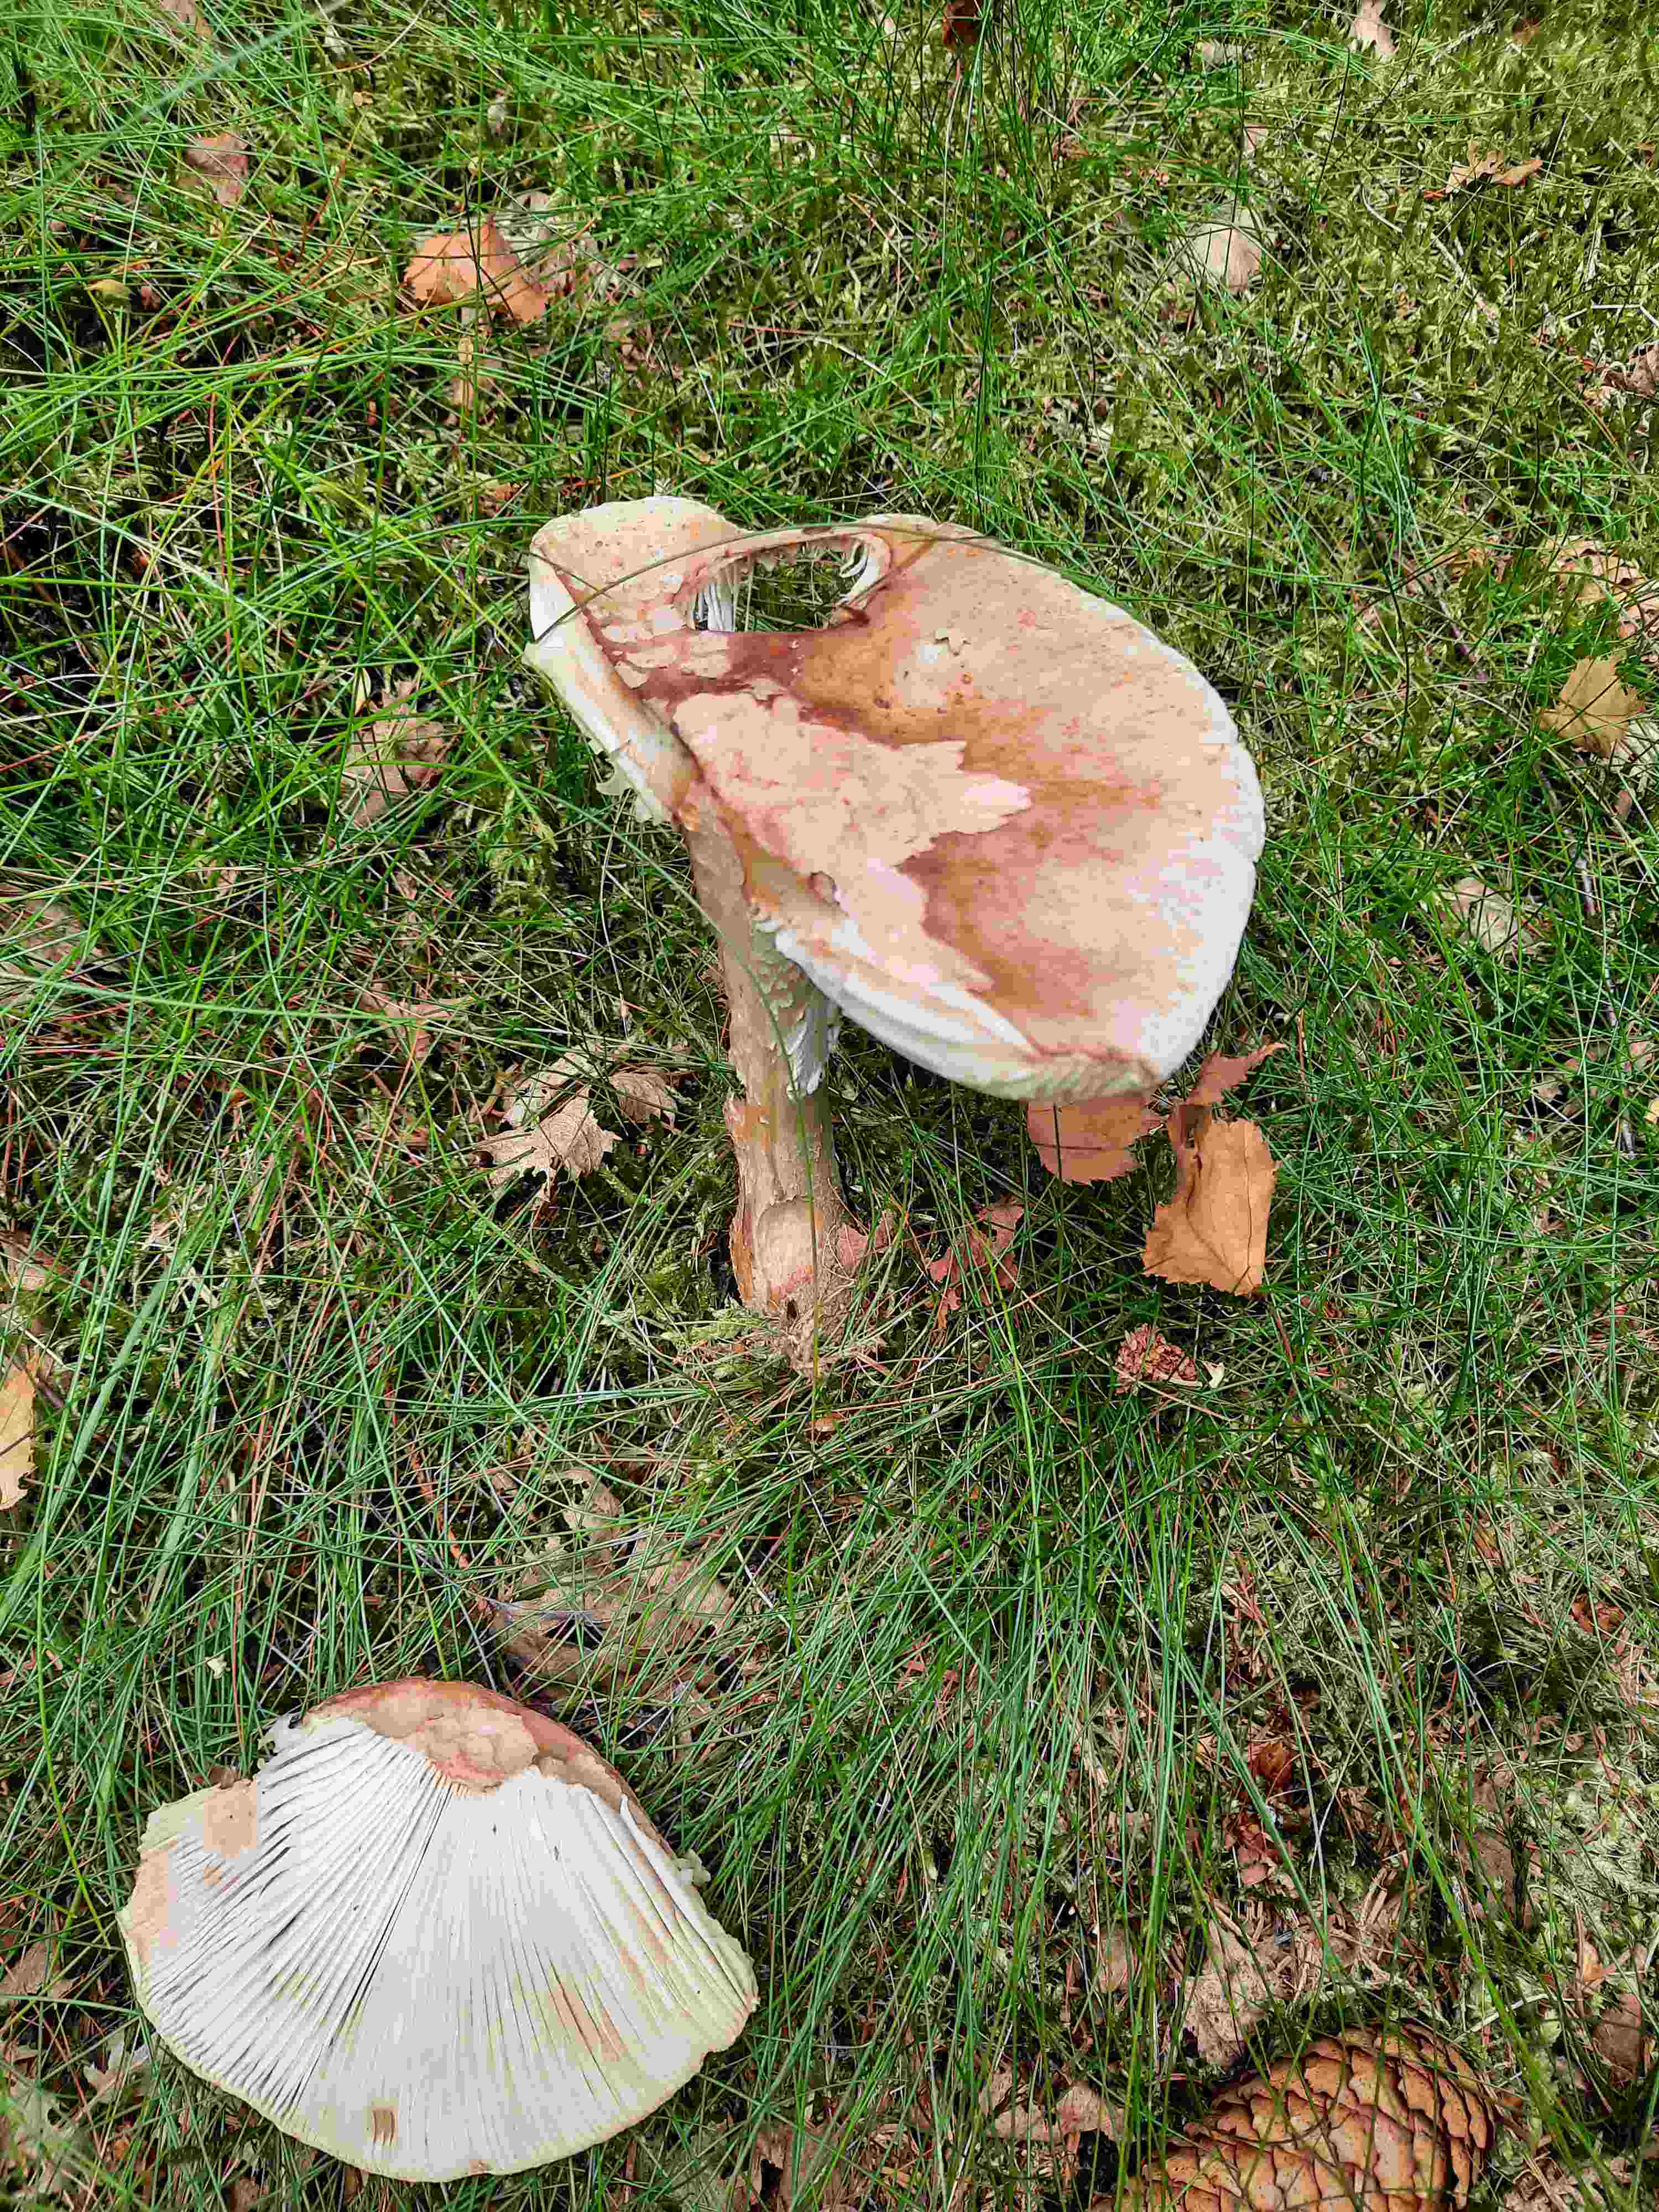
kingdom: Fungi
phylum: Basidiomycota
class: Agaricomycetes
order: Agaricales
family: Amanitaceae
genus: Amanita
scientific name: Amanita rubescens
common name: rødmende fluesvamp
